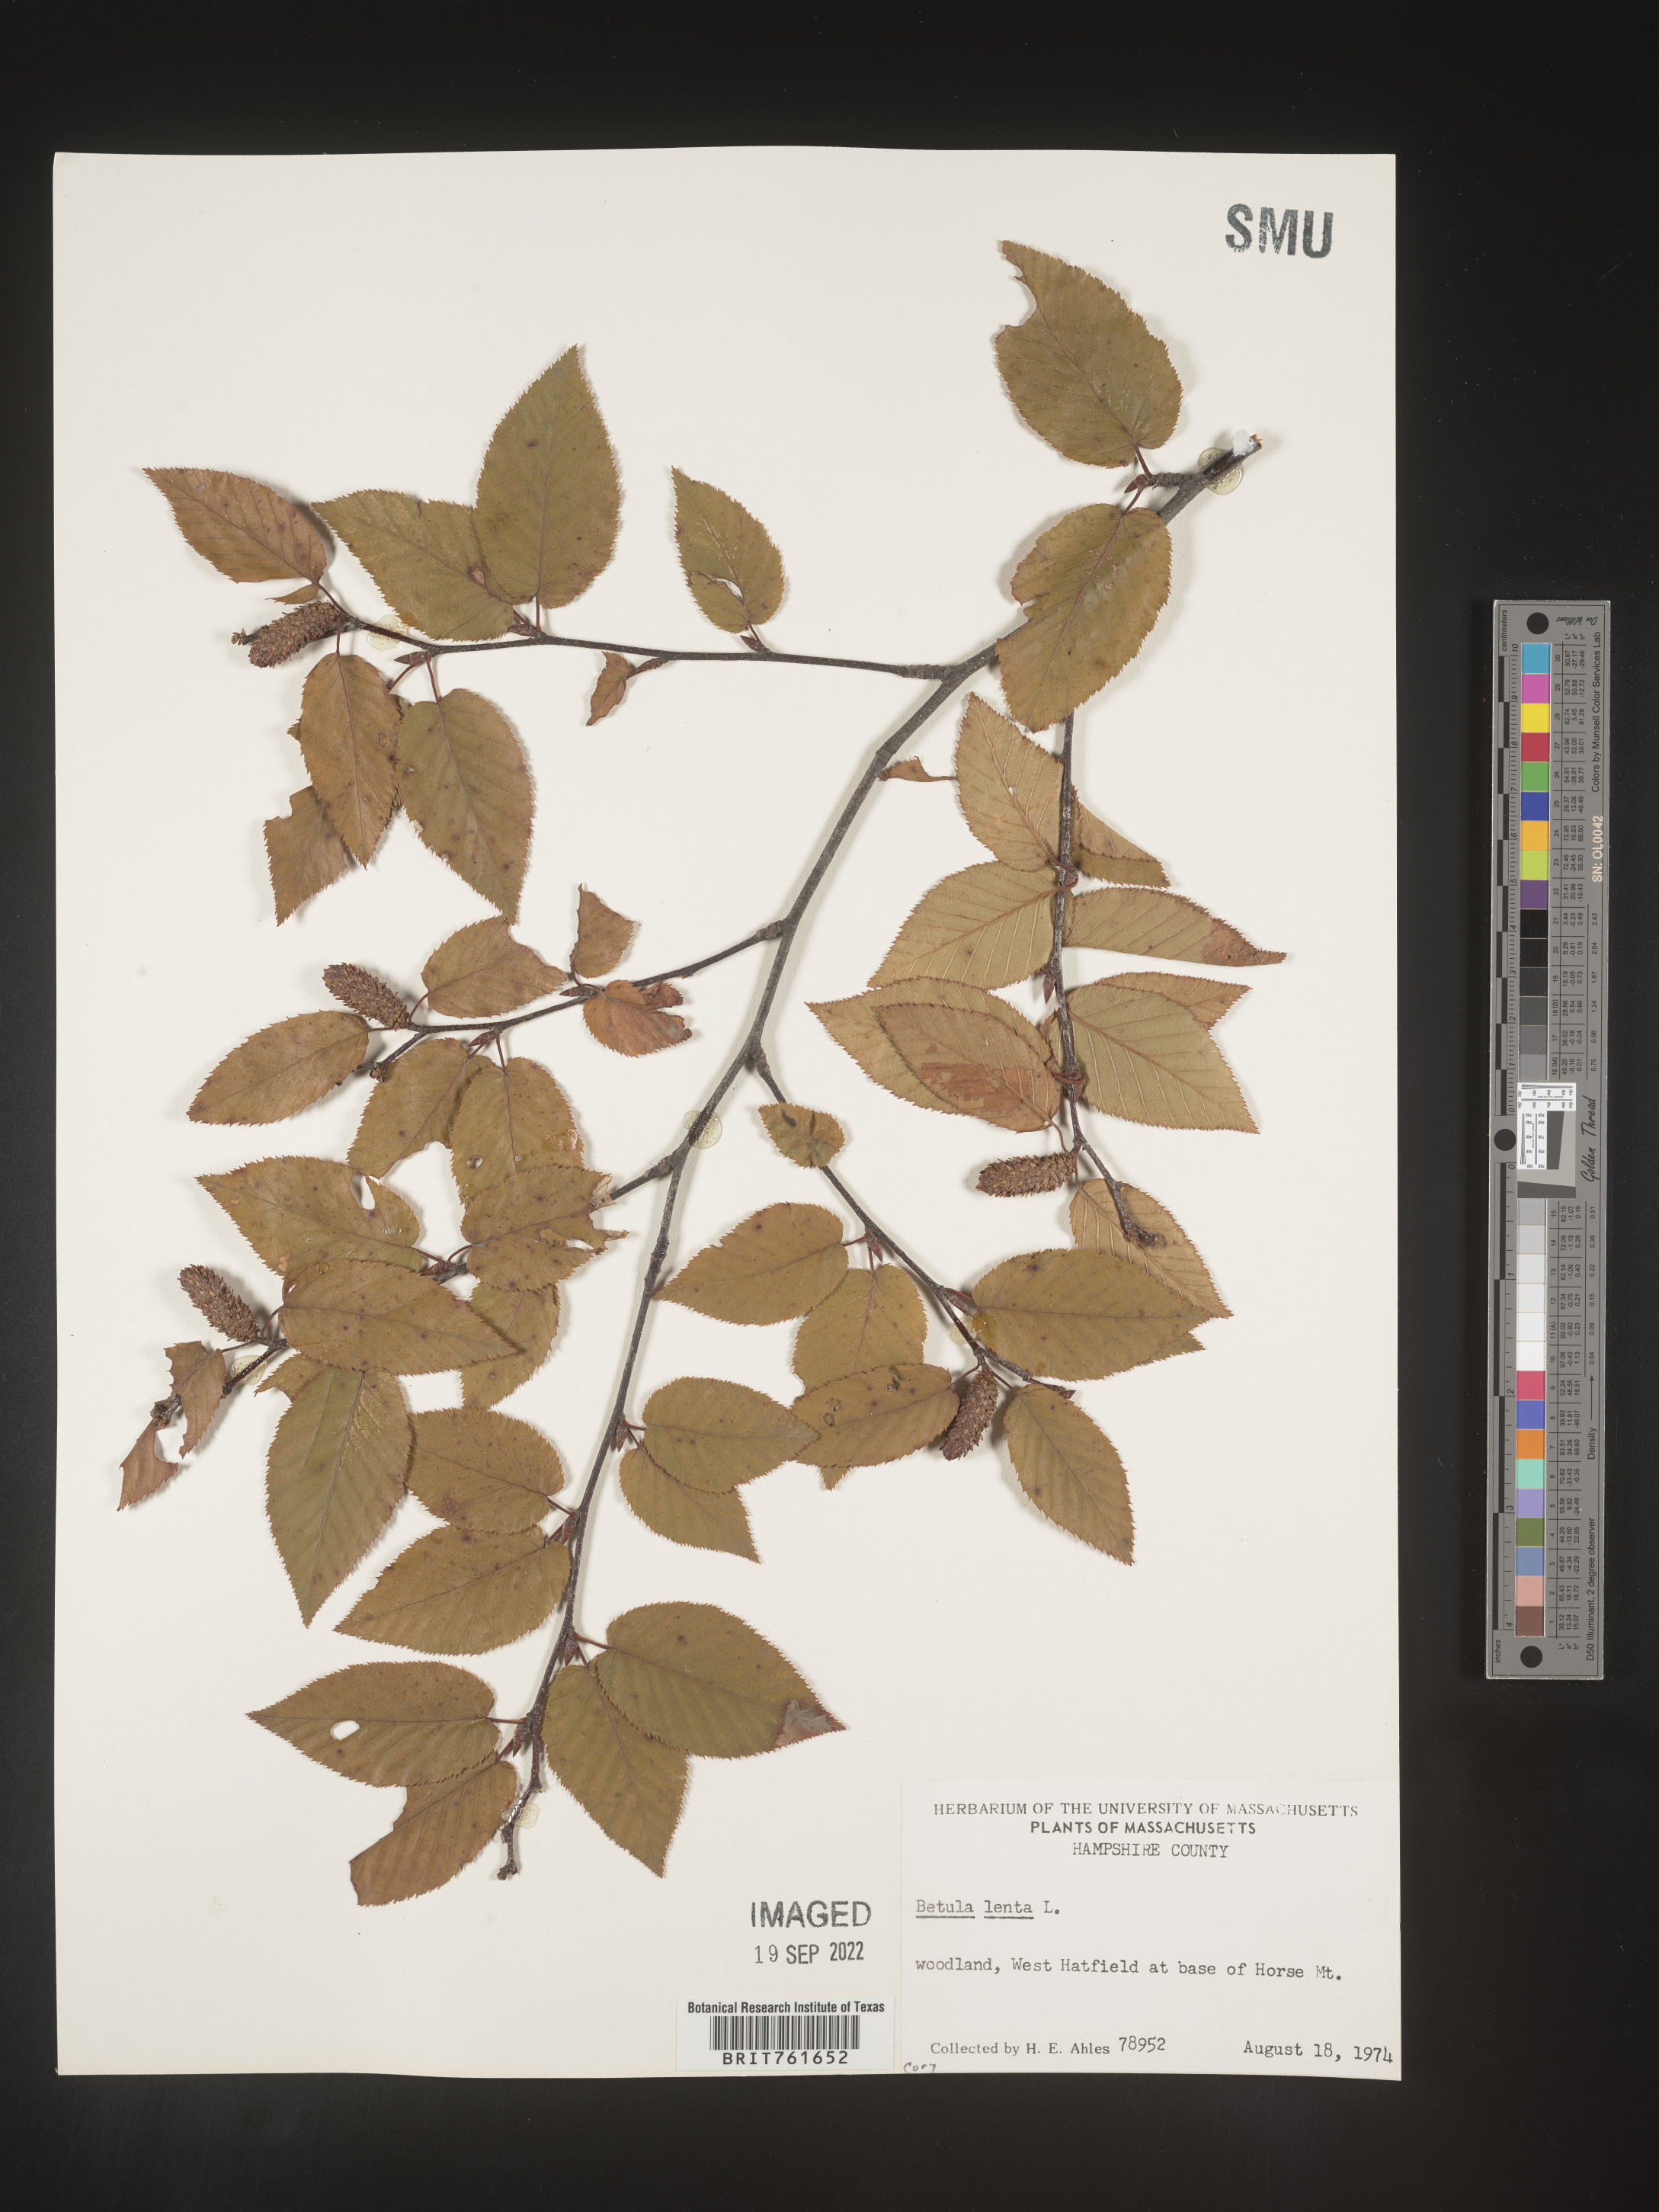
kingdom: Plantae
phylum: Tracheophyta
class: Magnoliopsida
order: Fagales
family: Betulaceae
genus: Betula
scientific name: Betula lenta
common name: Black birch
